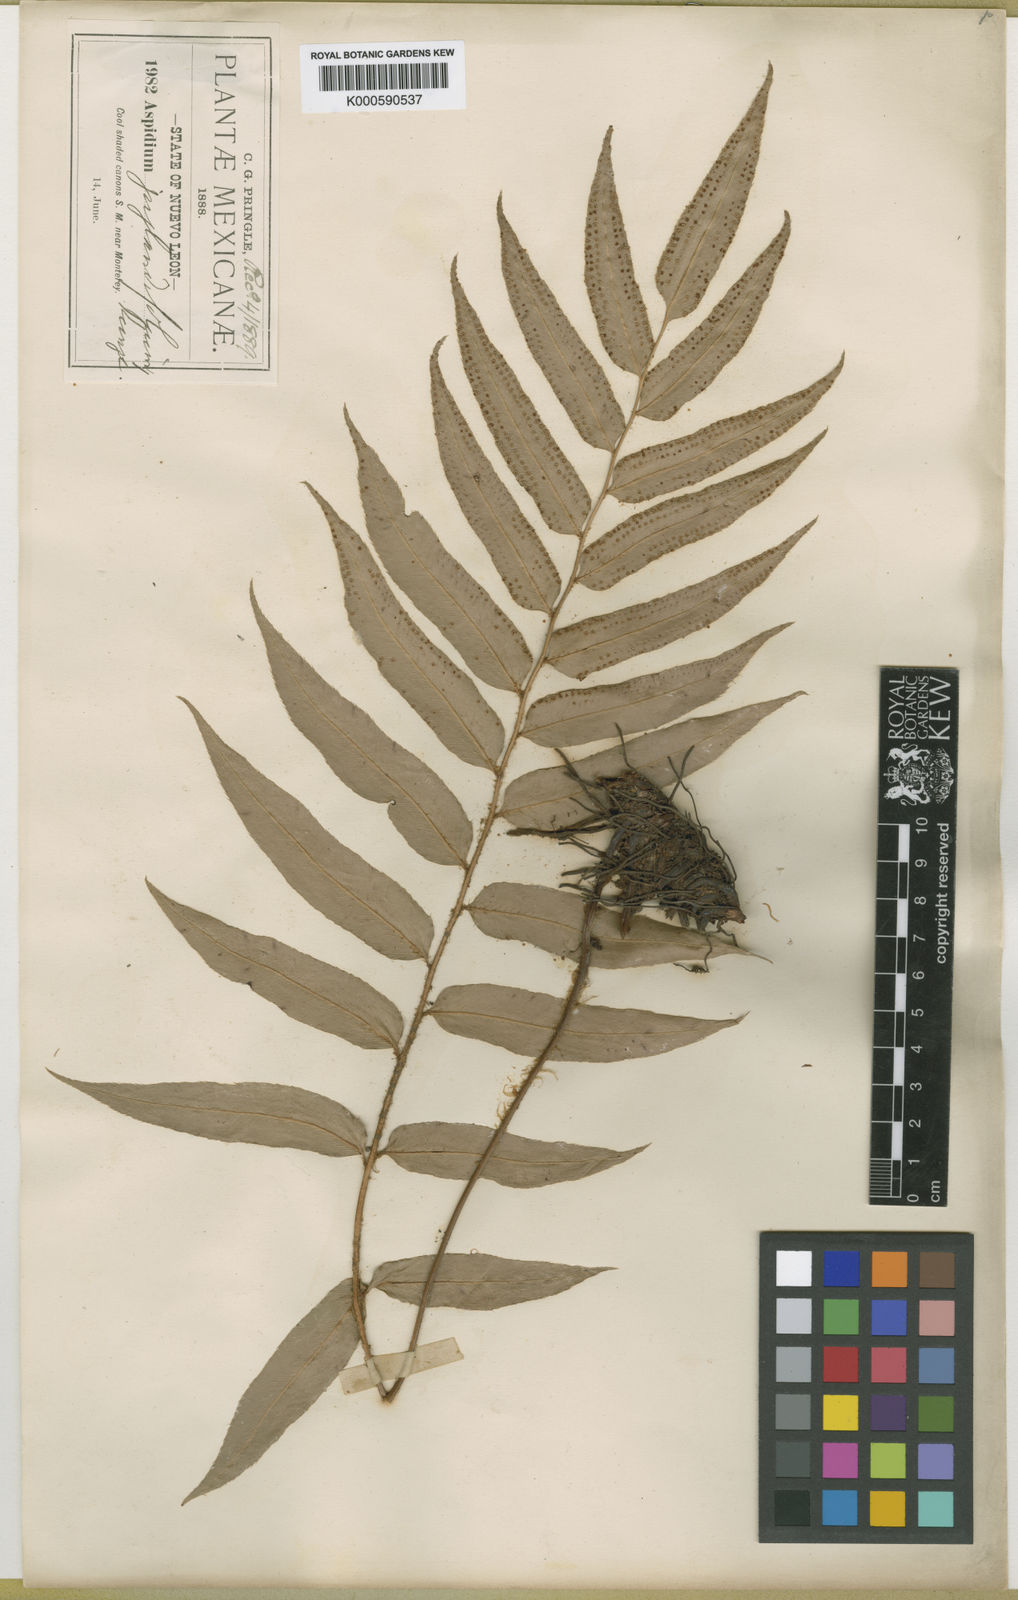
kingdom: Plantae
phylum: Tracheophyta
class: Polypodiopsida
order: Polypodiales
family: Dryopteridaceae
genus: Phanerophlebia
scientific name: Phanerophlebia umbonata
